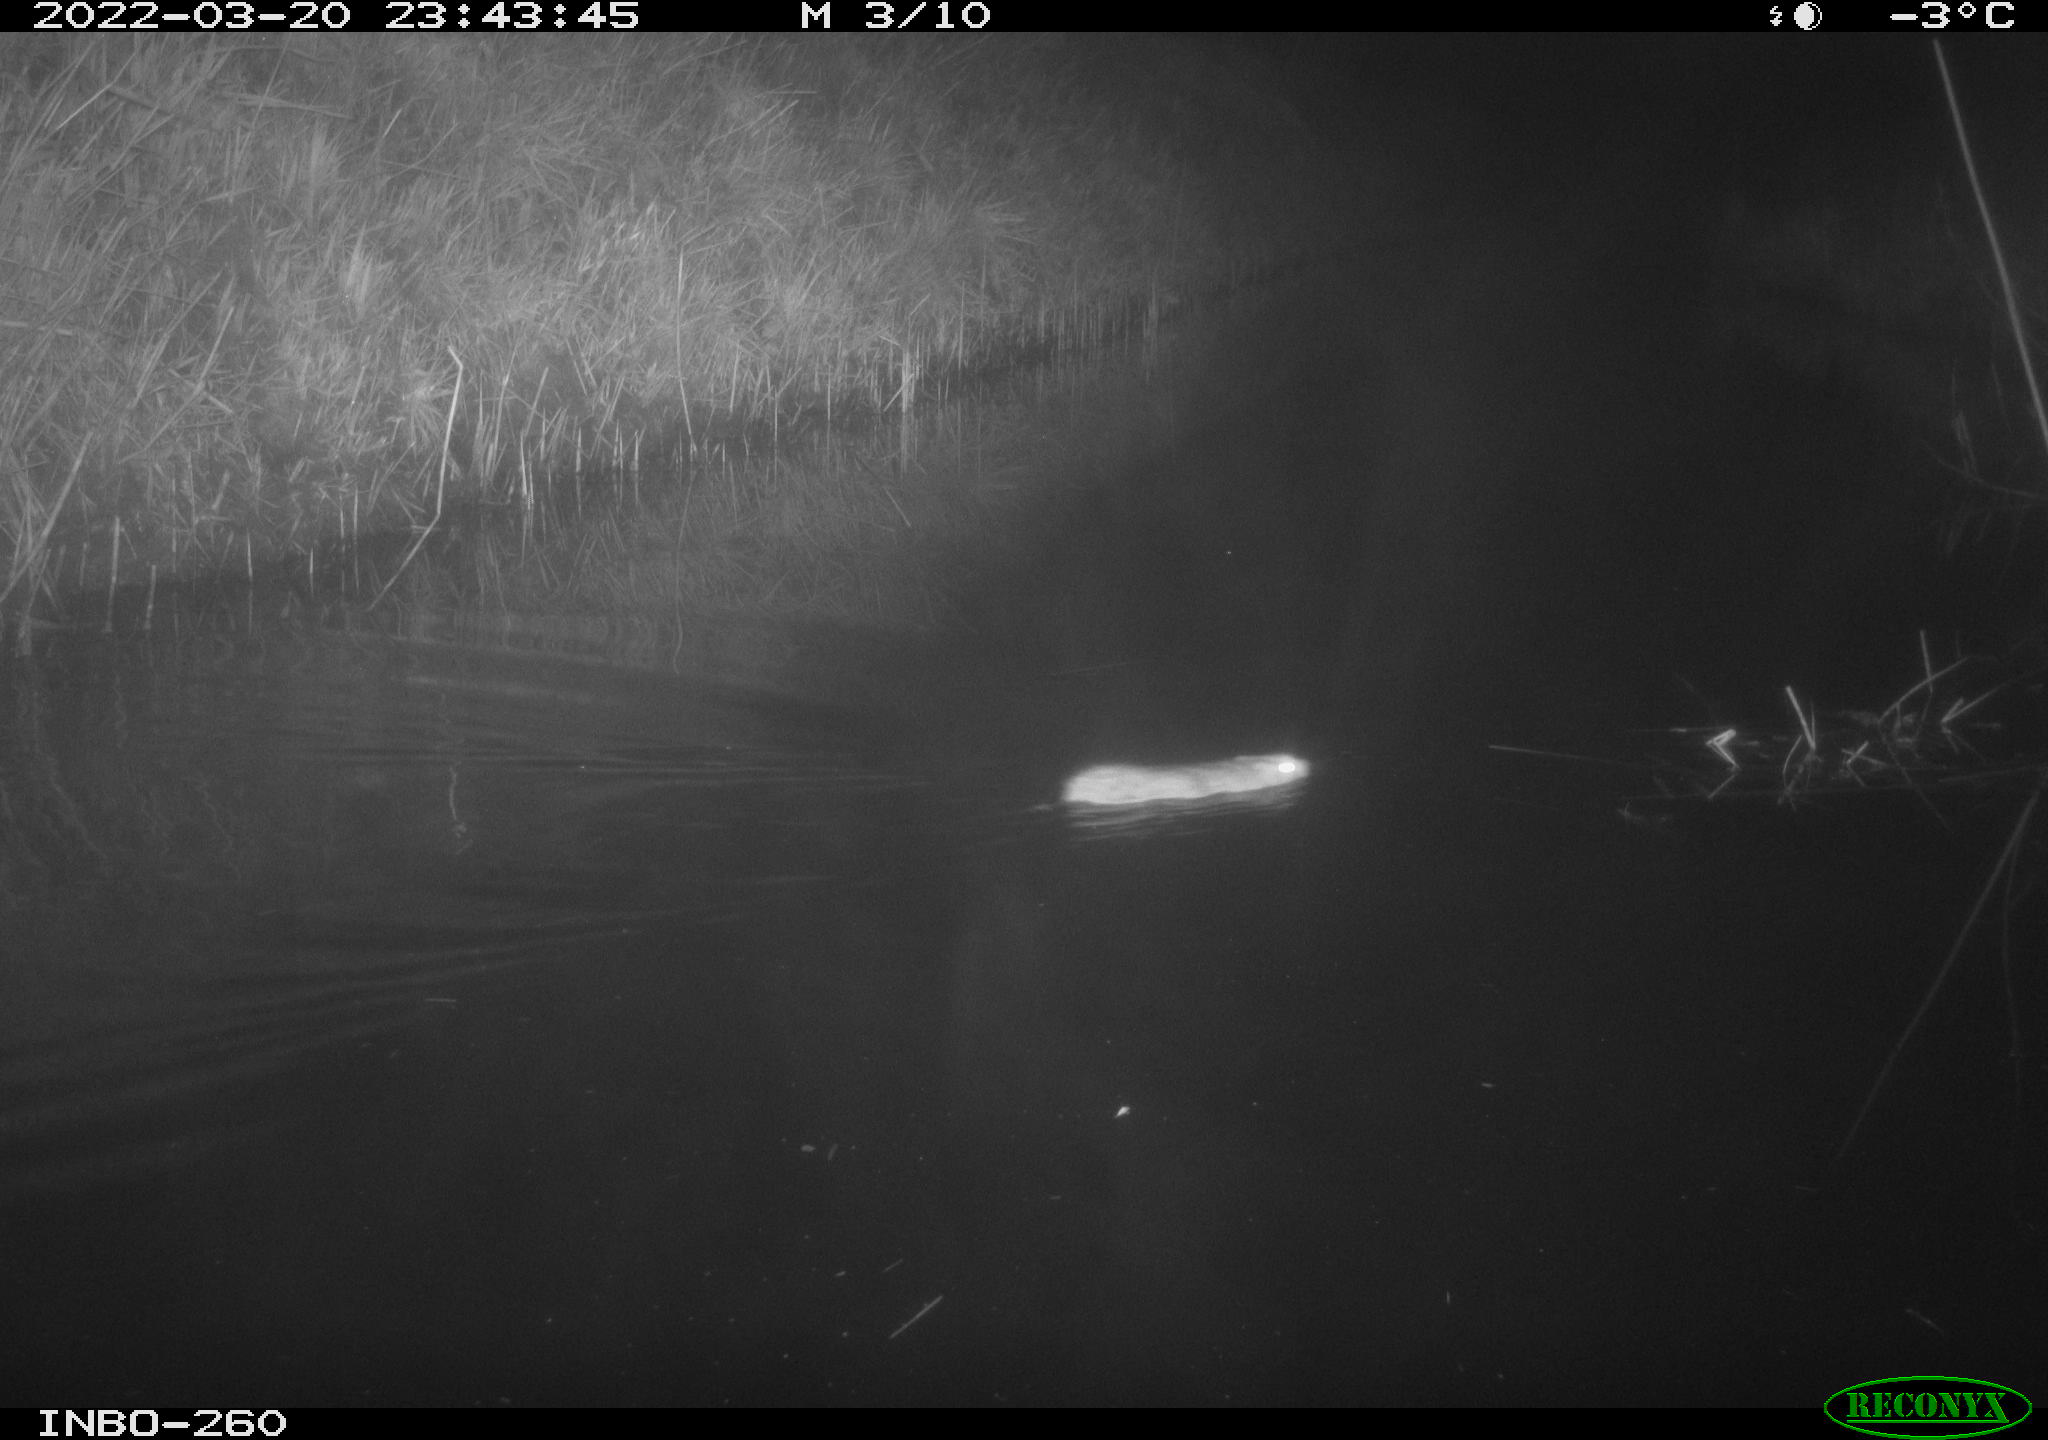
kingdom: Animalia
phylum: Chordata
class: Mammalia
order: Rodentia
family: Muridae
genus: Rattus
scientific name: Rattus norvegicus
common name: Brown rat
